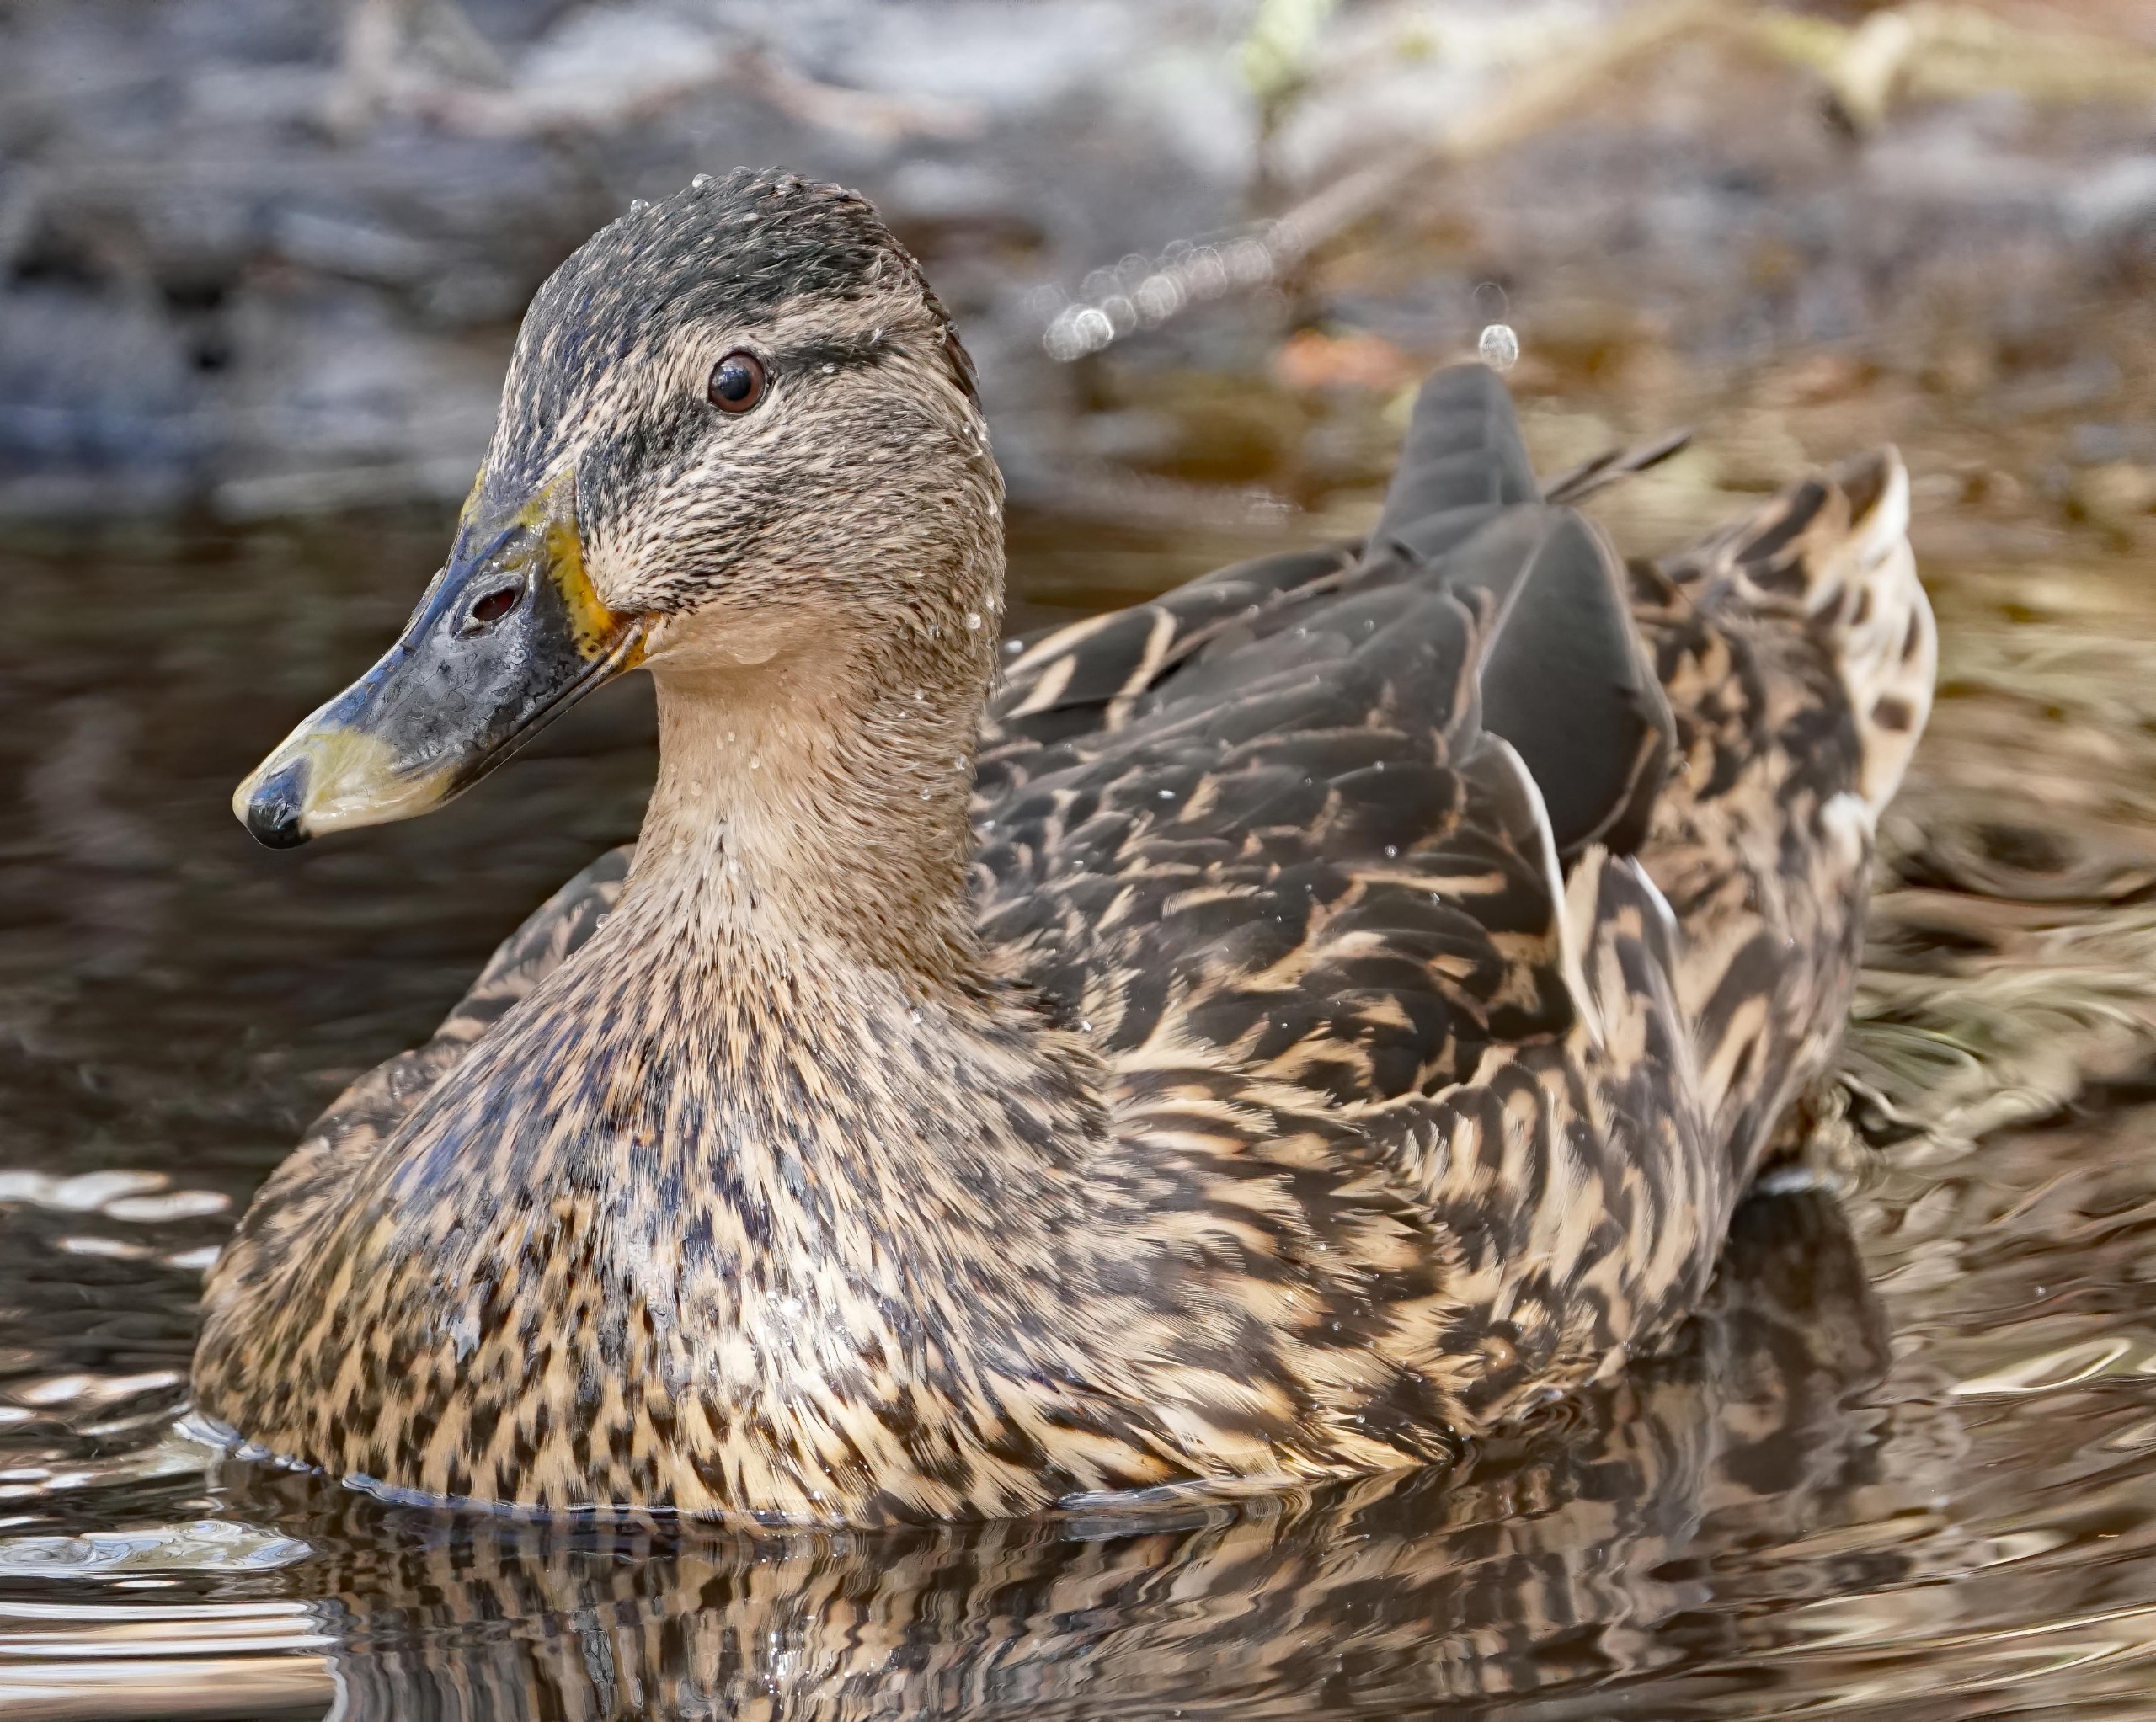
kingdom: Animalia
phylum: Chordata
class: Aves
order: Anseriformes
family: Anatidae
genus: Anas
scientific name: Anas platyrhynchos
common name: Gråand
